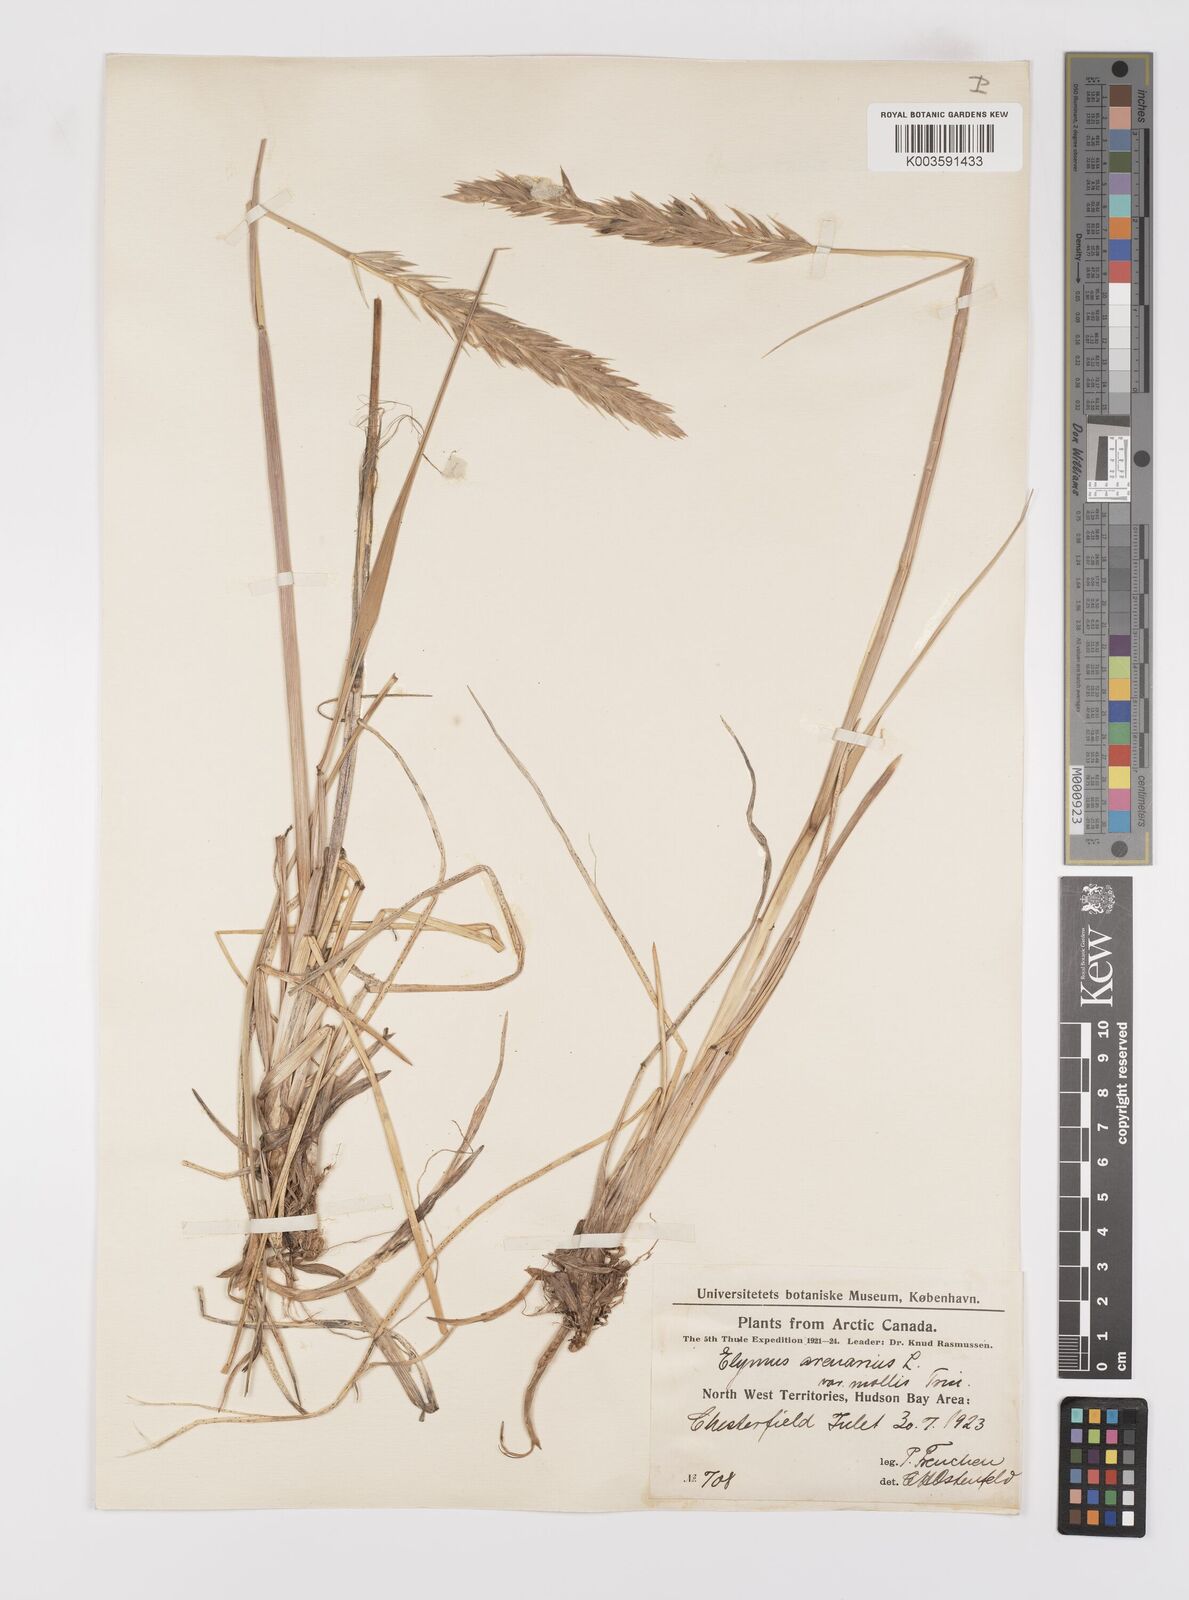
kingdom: Plantae
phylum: Tracheophyta
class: Liliopsida
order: Poales
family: Poaceae
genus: Leymus
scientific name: Leymus mollis
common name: American dune grass
